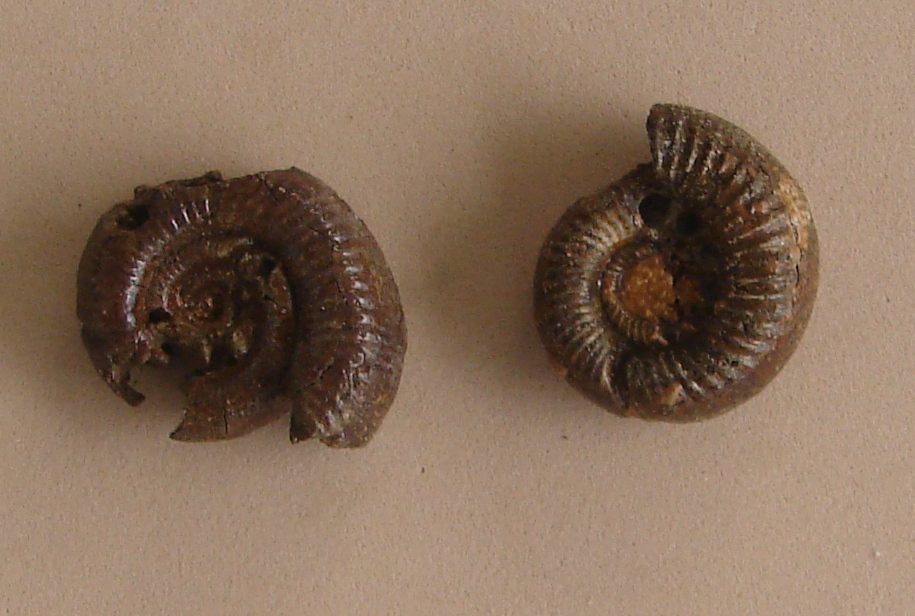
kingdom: Animalia
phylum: Mollusca
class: Cephalopoda
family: Perisphinctidae
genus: Perisphinctes
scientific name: Perisphinctes
